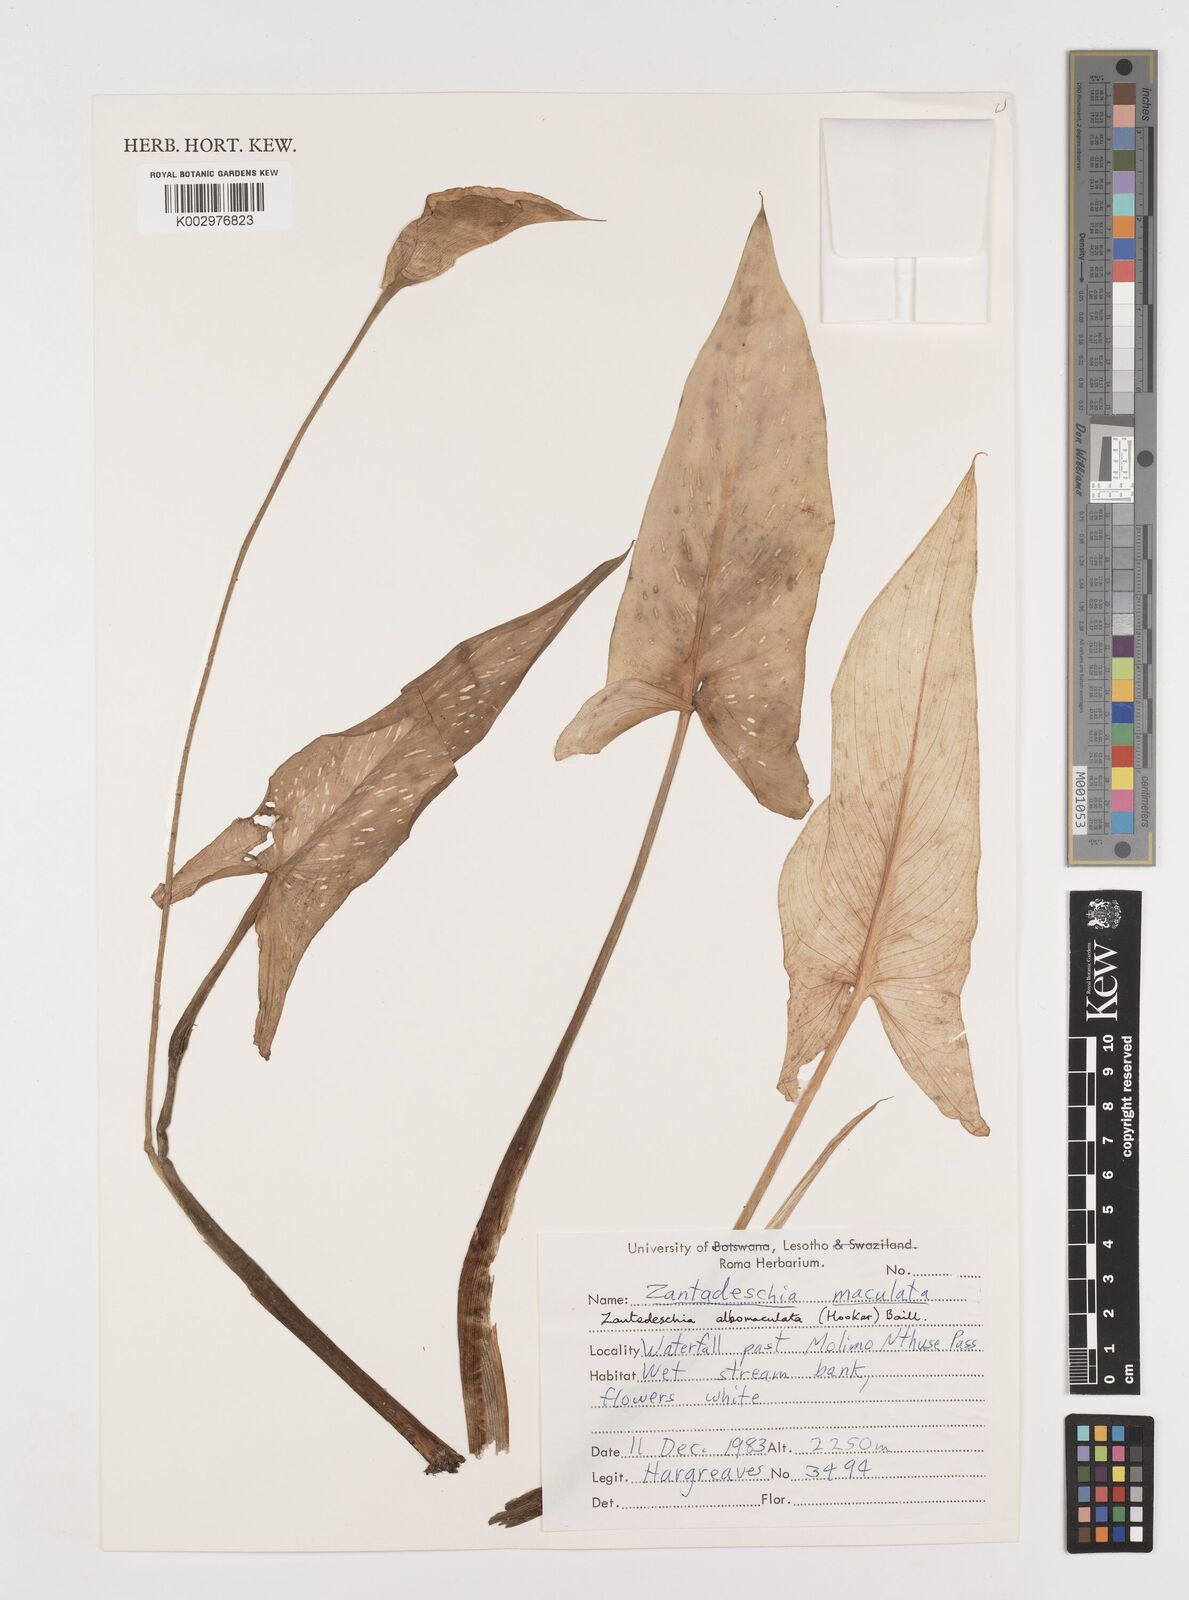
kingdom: Plantae
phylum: Tracheophyta
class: Liliopsida
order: Alismatales
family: Araceae
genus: Zantedeschia
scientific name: Zantedeschia albomaculata
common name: Spotted calla lily
